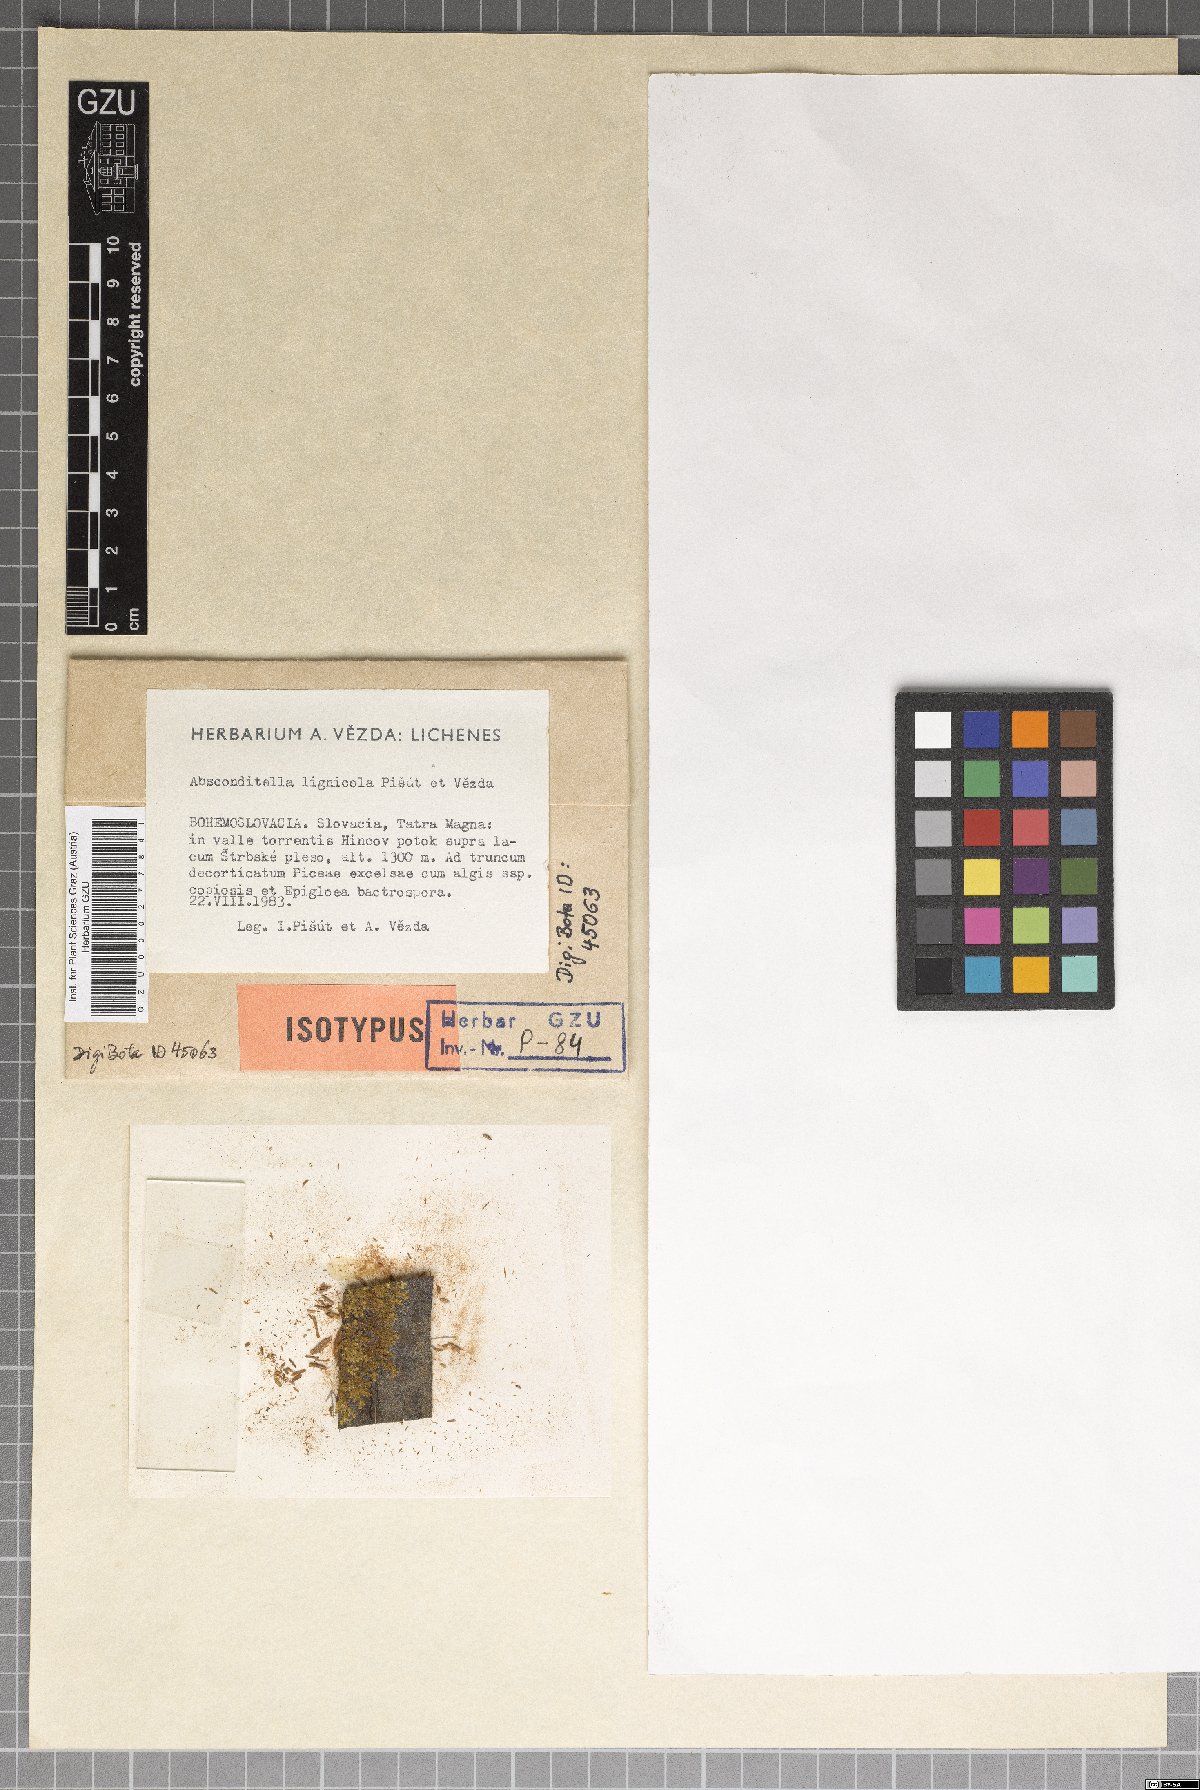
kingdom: Fungi
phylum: Ascomycota
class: Lecanoromycetes
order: Ostropales
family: Stictidaceae
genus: Absconditella
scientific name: Absconditella lignicola
